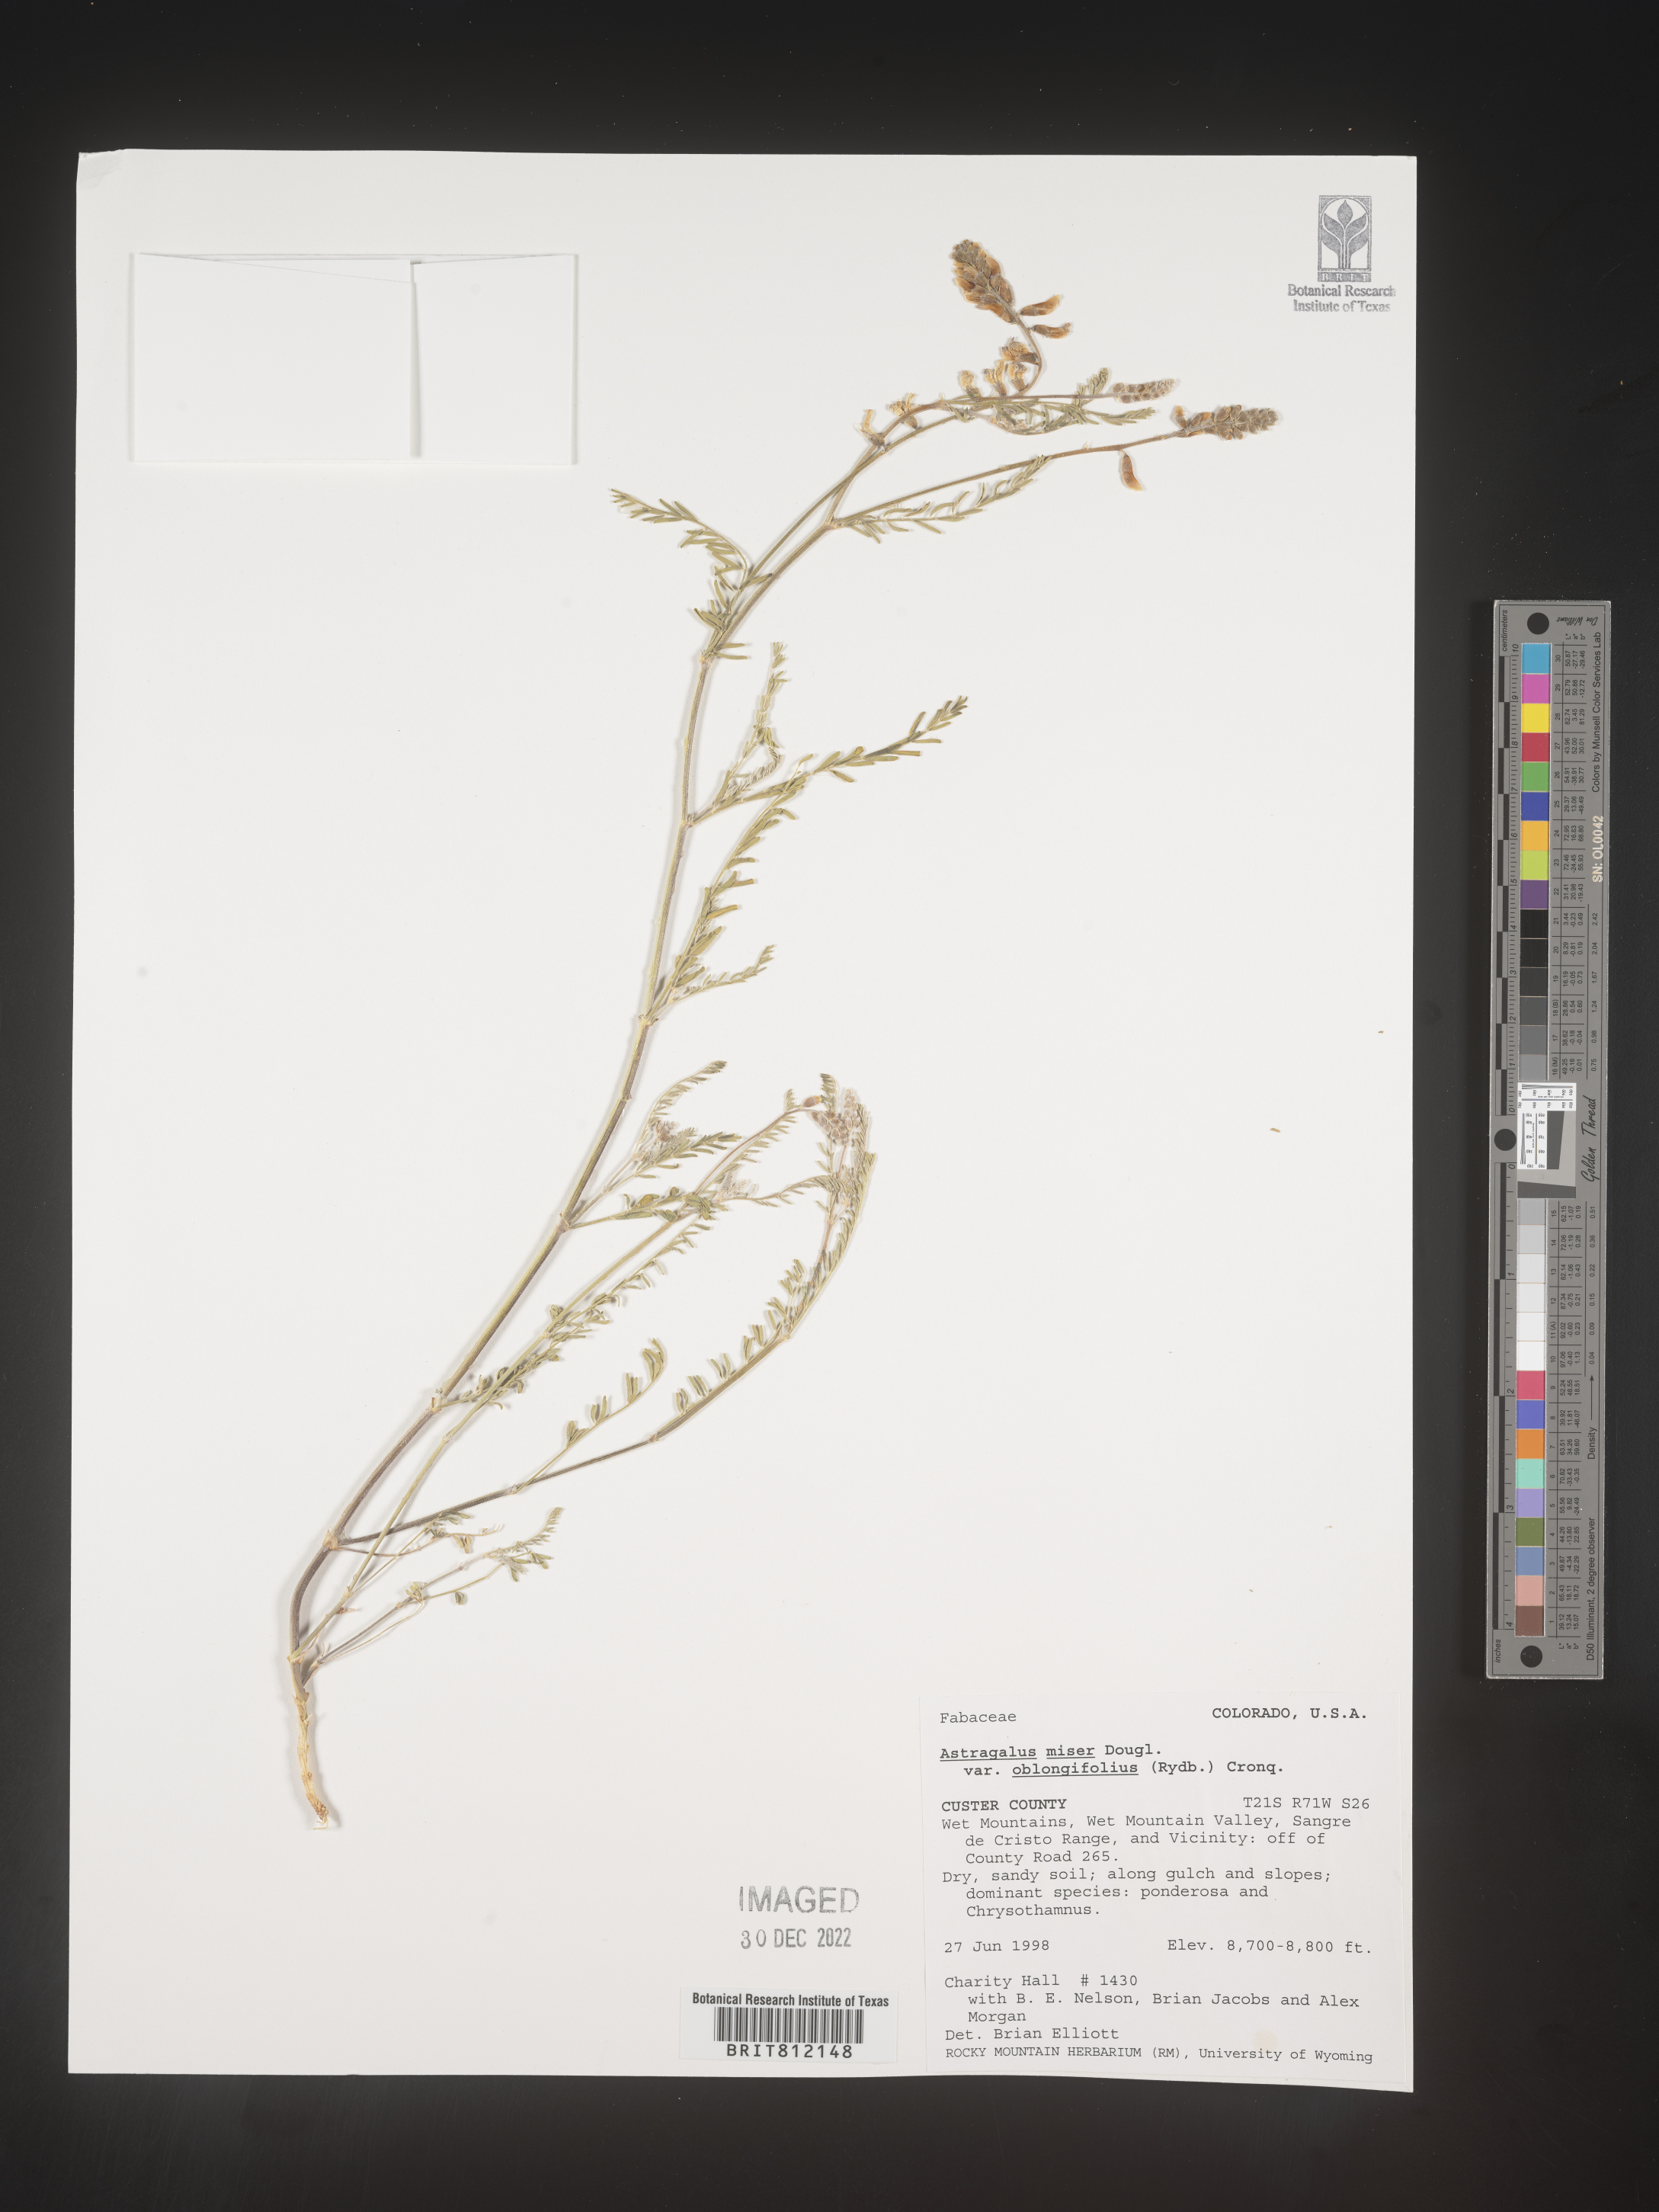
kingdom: Plantae
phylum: Tracheophyta
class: Magnoliopsida
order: Fabales
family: Fabaceae
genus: Astragalus
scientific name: Astragalus miser
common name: Timber milkvetch
